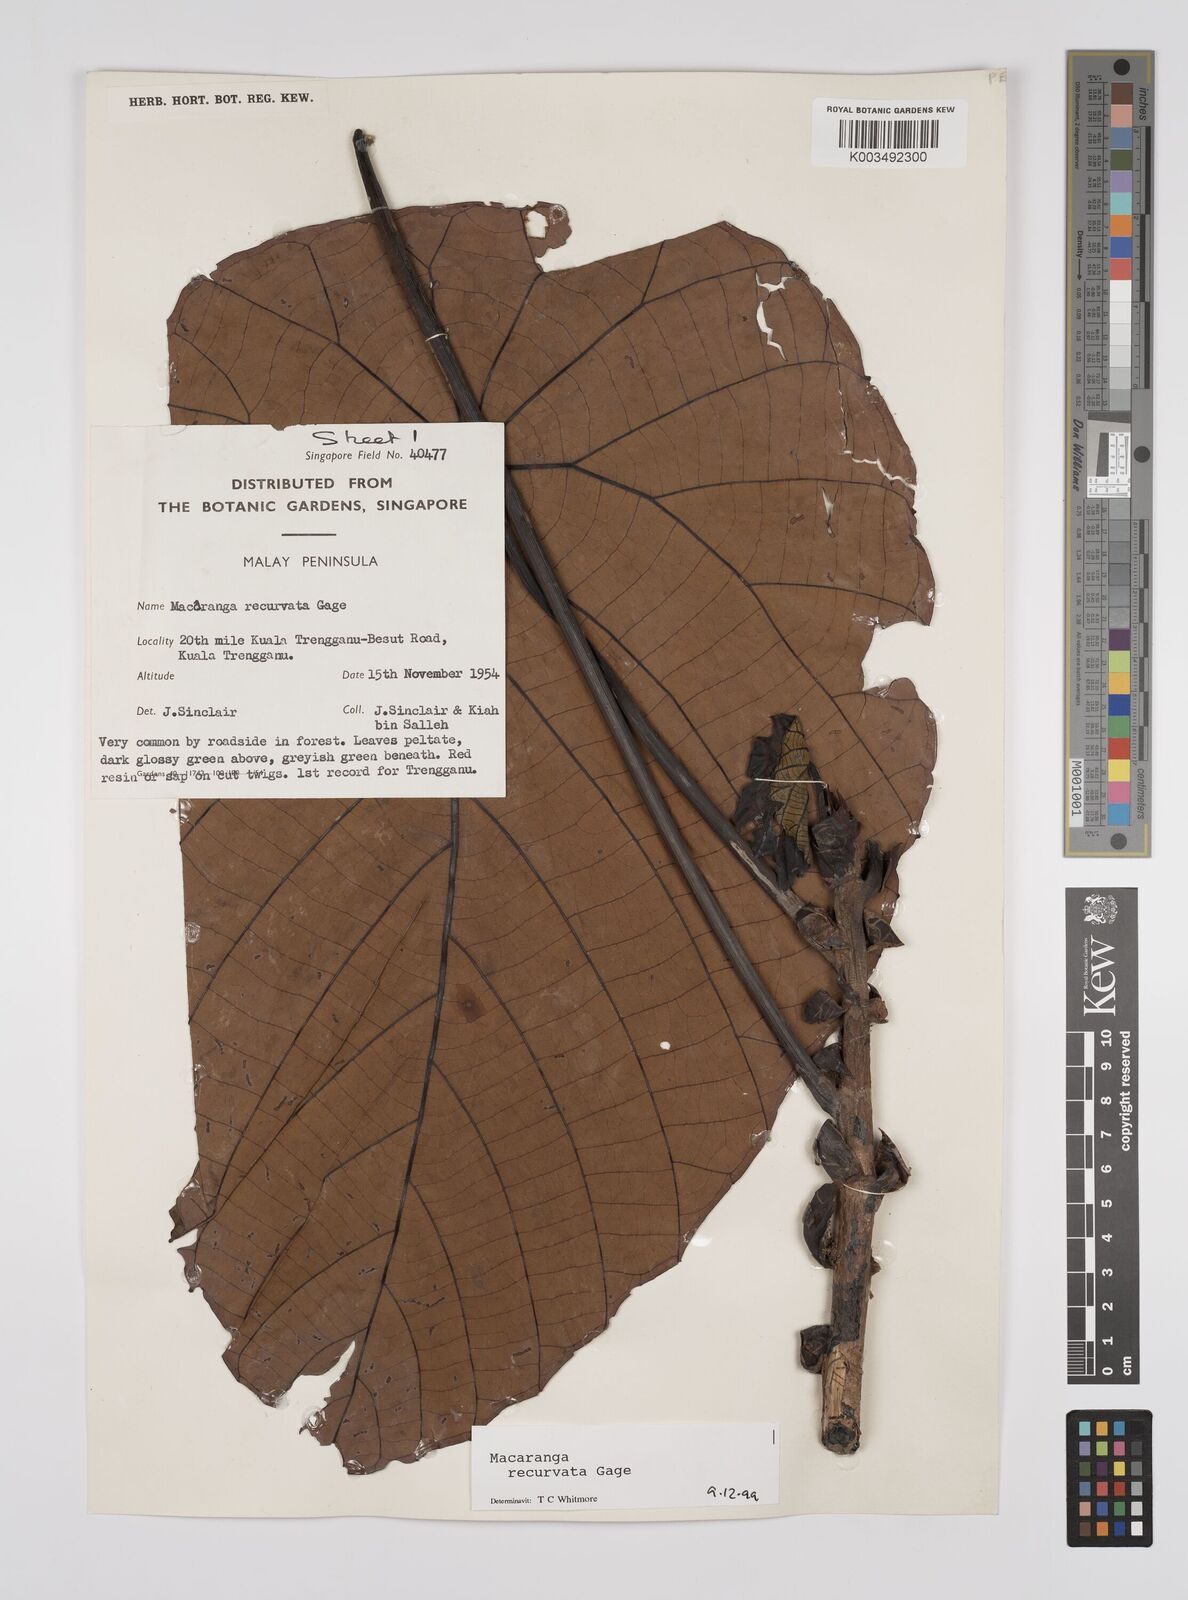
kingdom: Plantae
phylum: Tracheophyta
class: Magnoliopsida
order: Malpighiales
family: Euphorbiaceae
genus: Macaranga
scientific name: Macaranga recurvata
